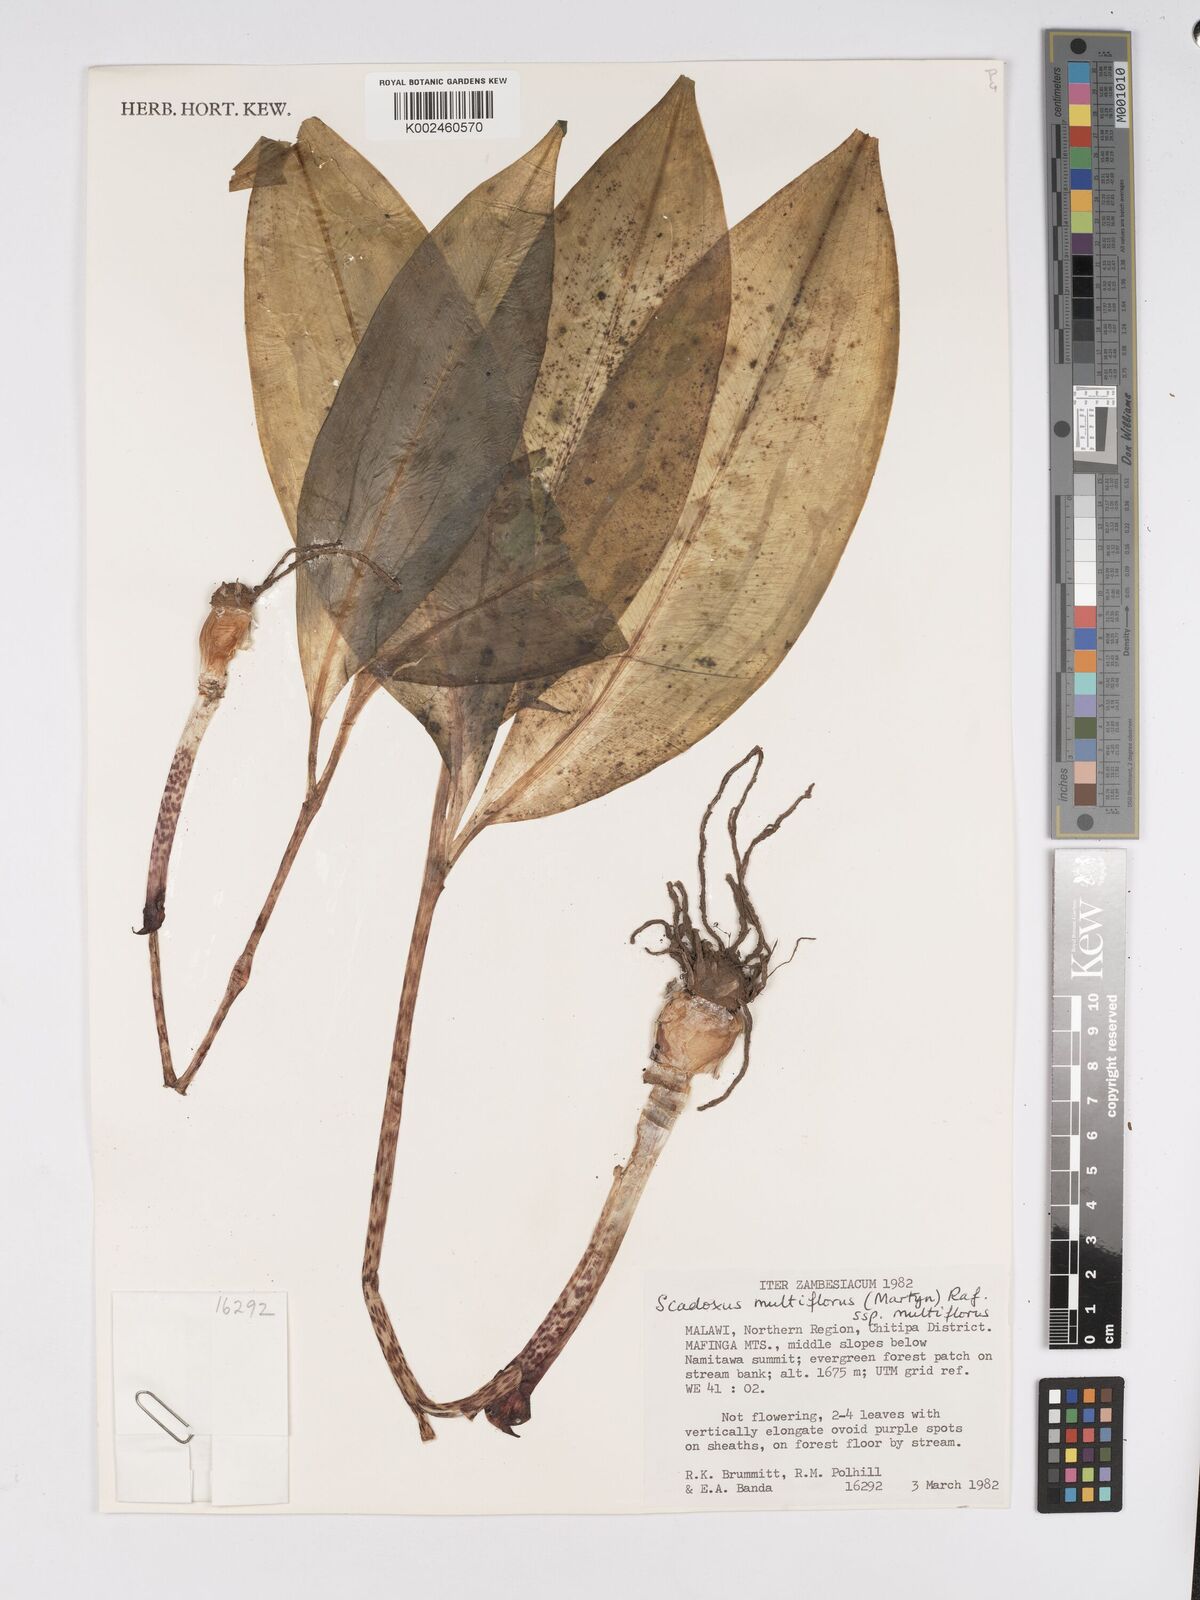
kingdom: Plantae
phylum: Tracheophyta
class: Liliopsida
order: Asparagales
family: Amaryllidaceae
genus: Scadoxus
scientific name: Scadoxus multiflorus
